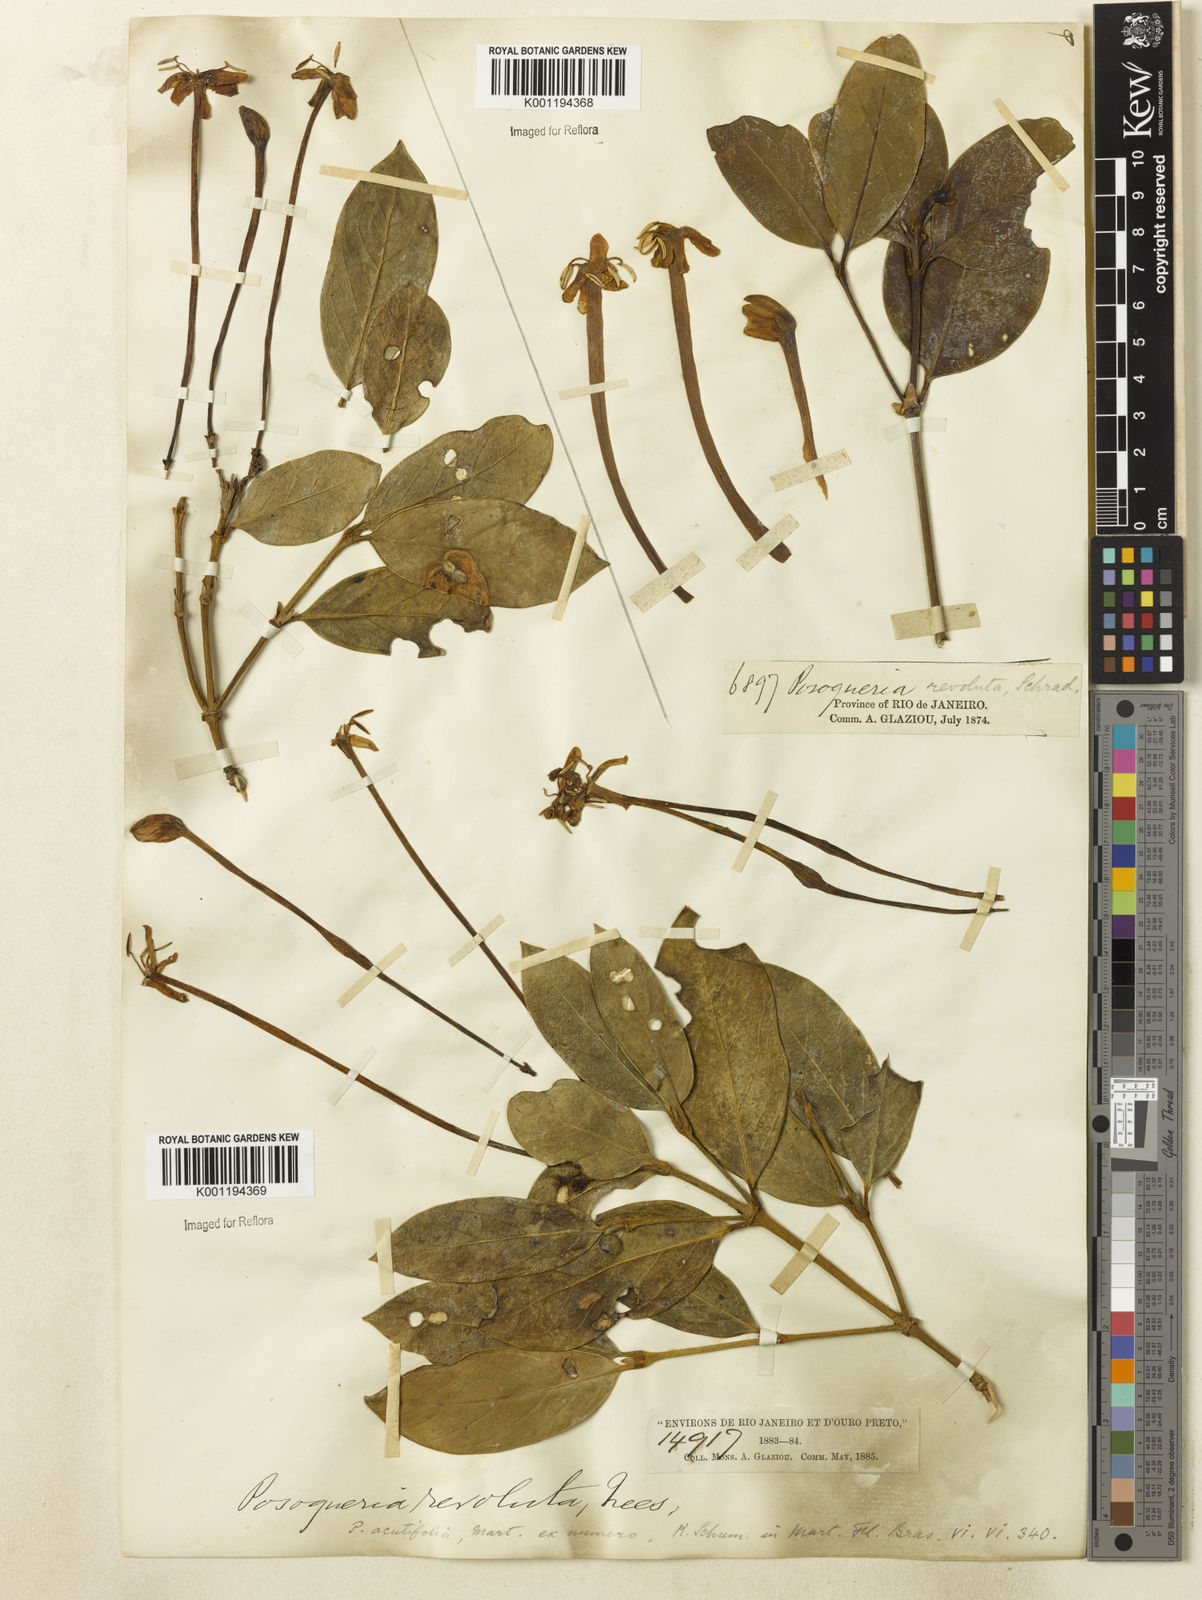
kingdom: Plantae
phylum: Tracheophyta
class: Magnoliopsida
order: Gentianales
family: Rubiaceae
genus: Posoqueria
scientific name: Posoqueria acutifolia
